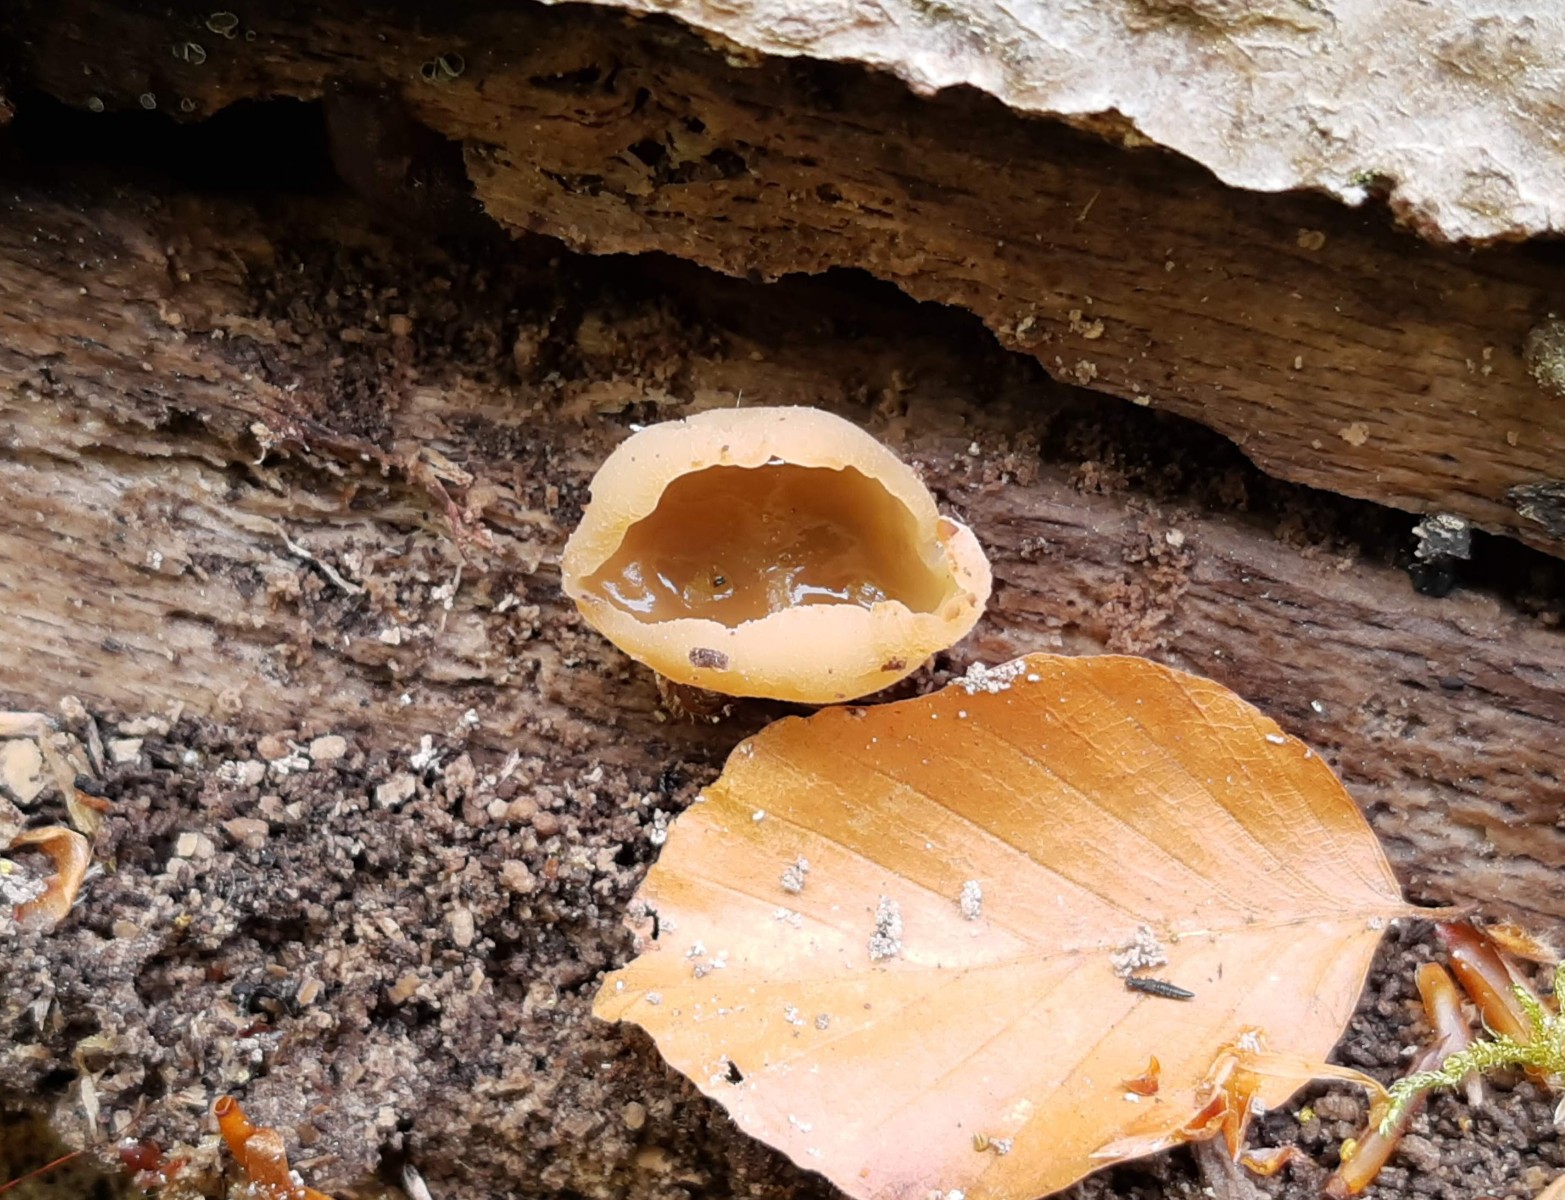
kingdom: Fungi
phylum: Ascomycota
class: Pezizomycetes
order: Pezizales
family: Pezizaceae
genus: Peziza
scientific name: Peziza varia
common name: Ved-bægersvamp
